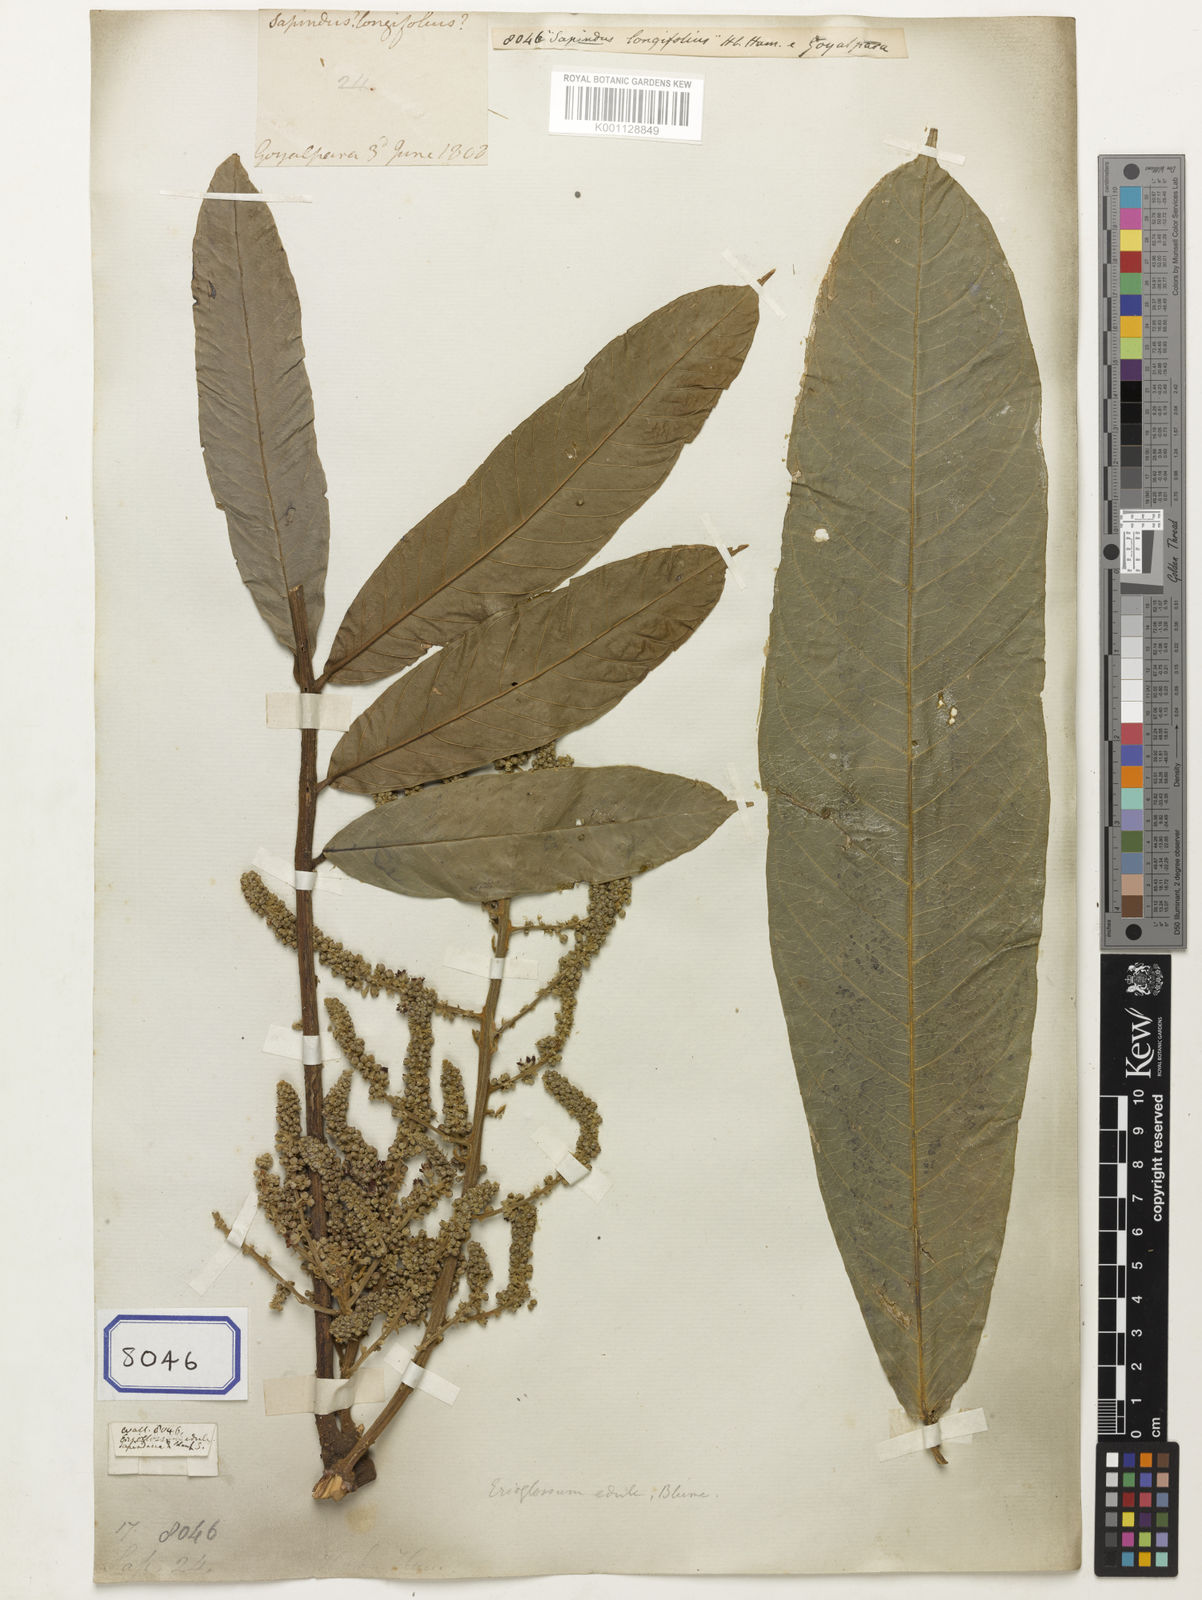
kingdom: Plantae
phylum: Tracheophyta
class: Magnoliopsida
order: Sapindales
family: Sapindaceae
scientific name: Sapindaceae
